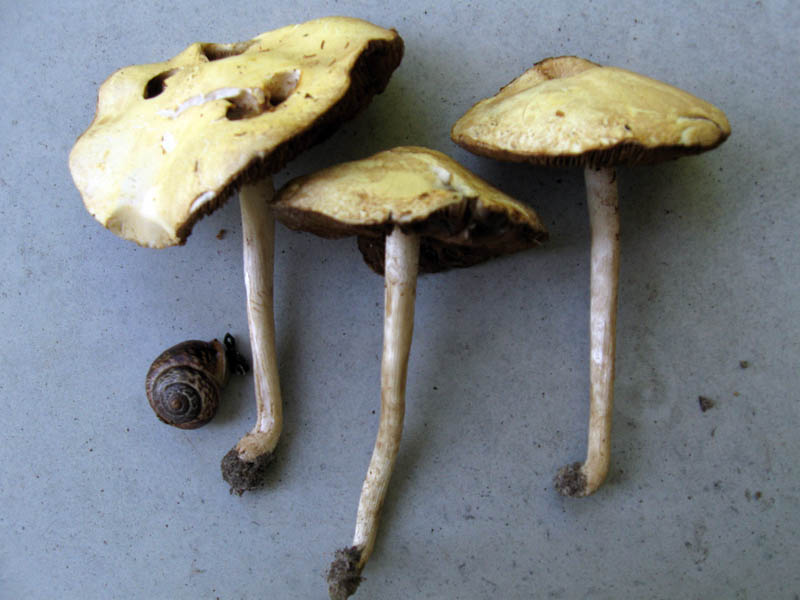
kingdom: Fungi
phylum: Basidiomycota
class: Agaricomycetes
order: Agaricales
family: Strophariaceae
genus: Agrocybe
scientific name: Agrocybe dura
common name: fastkødet agerhat
